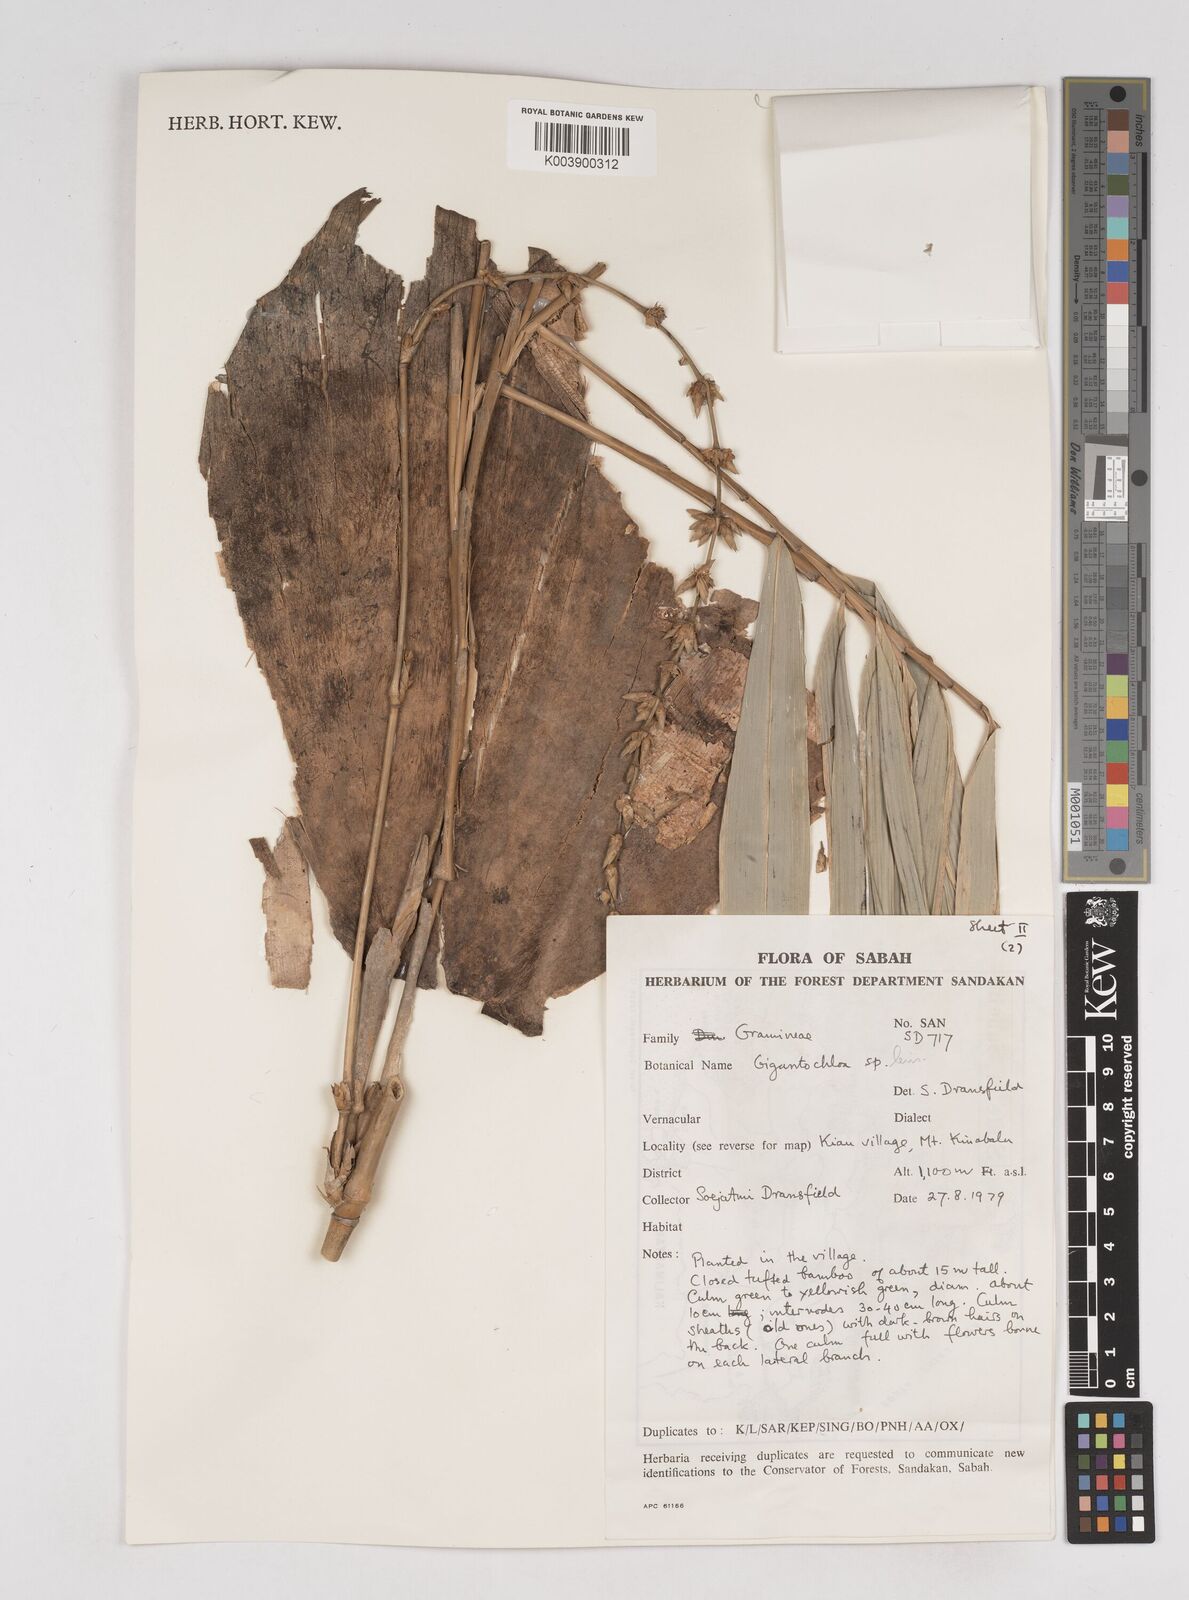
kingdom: Plantae
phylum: Tracheophyta
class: Liliopsida
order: Poales
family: Poaceae
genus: Gigantochloa
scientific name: Gigantochloa levis
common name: Smooth-shoot gigantochloa
